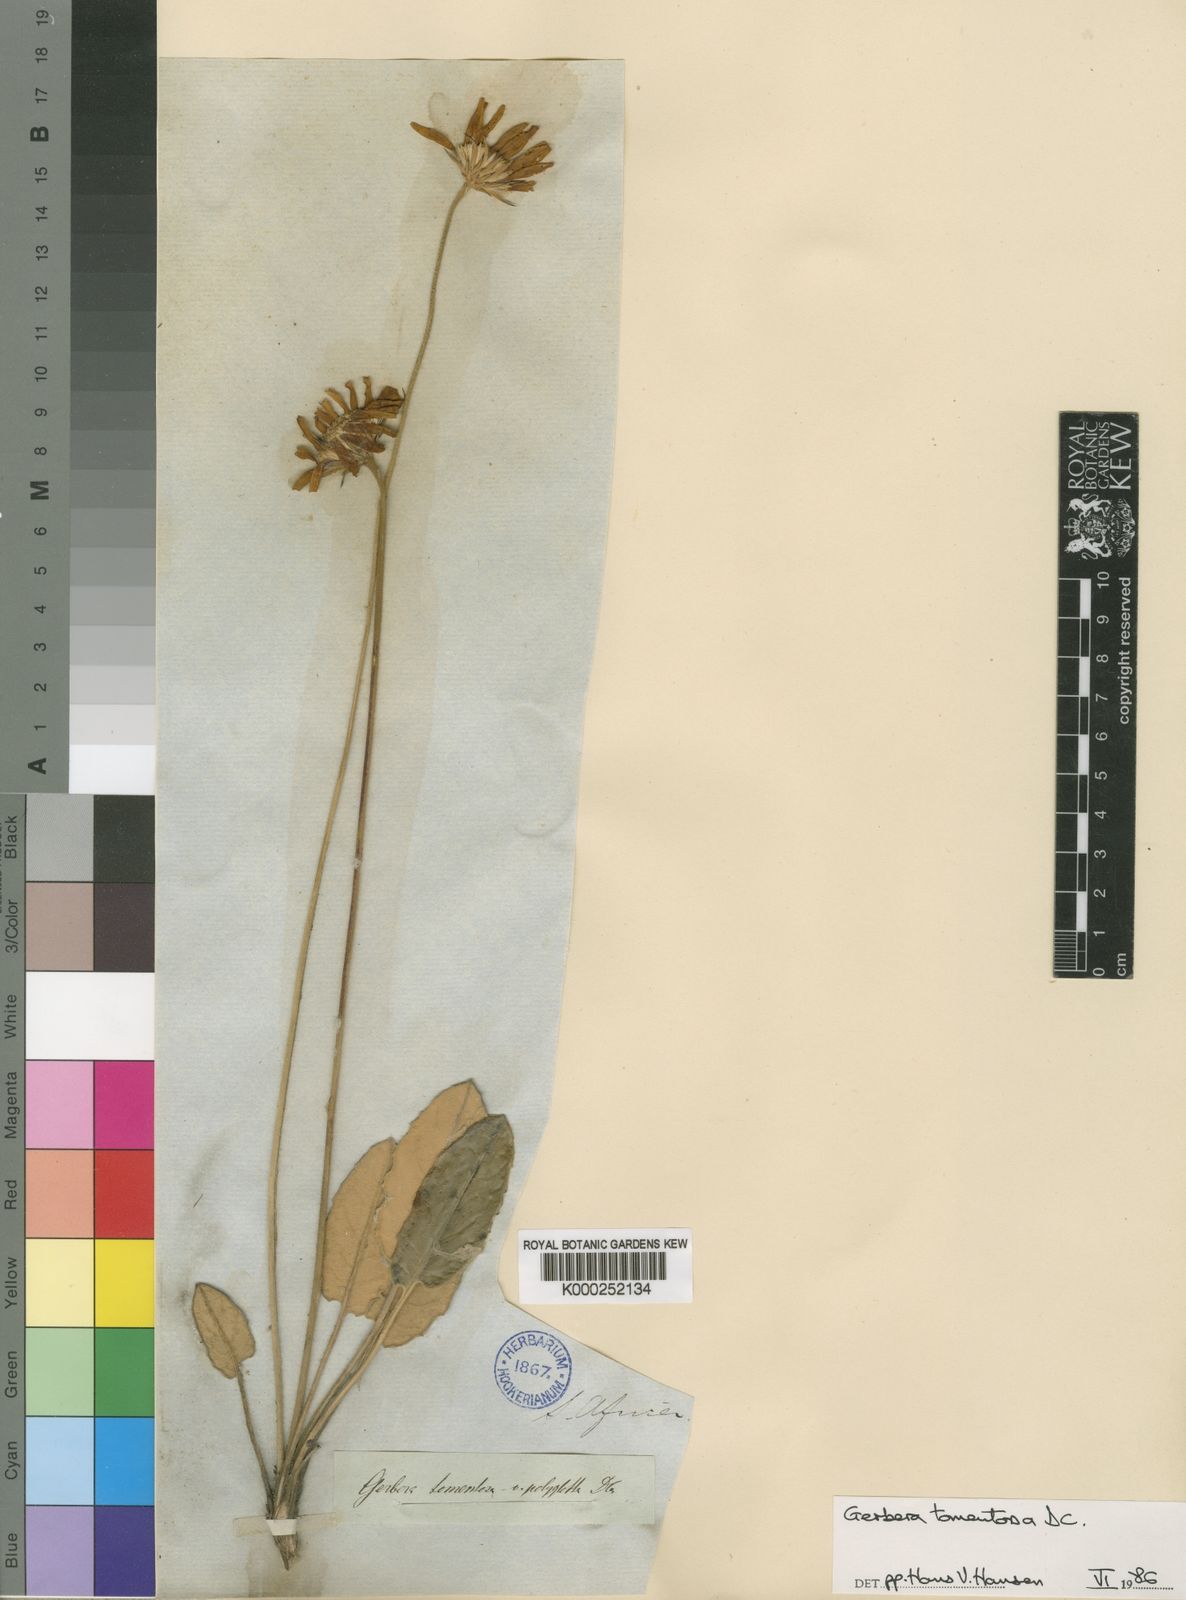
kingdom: Plantae
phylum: Tracheophyta
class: Magnoliopsida
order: Asterales
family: Asteraceae
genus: Gerbera
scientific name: Gerbera tomentosa
